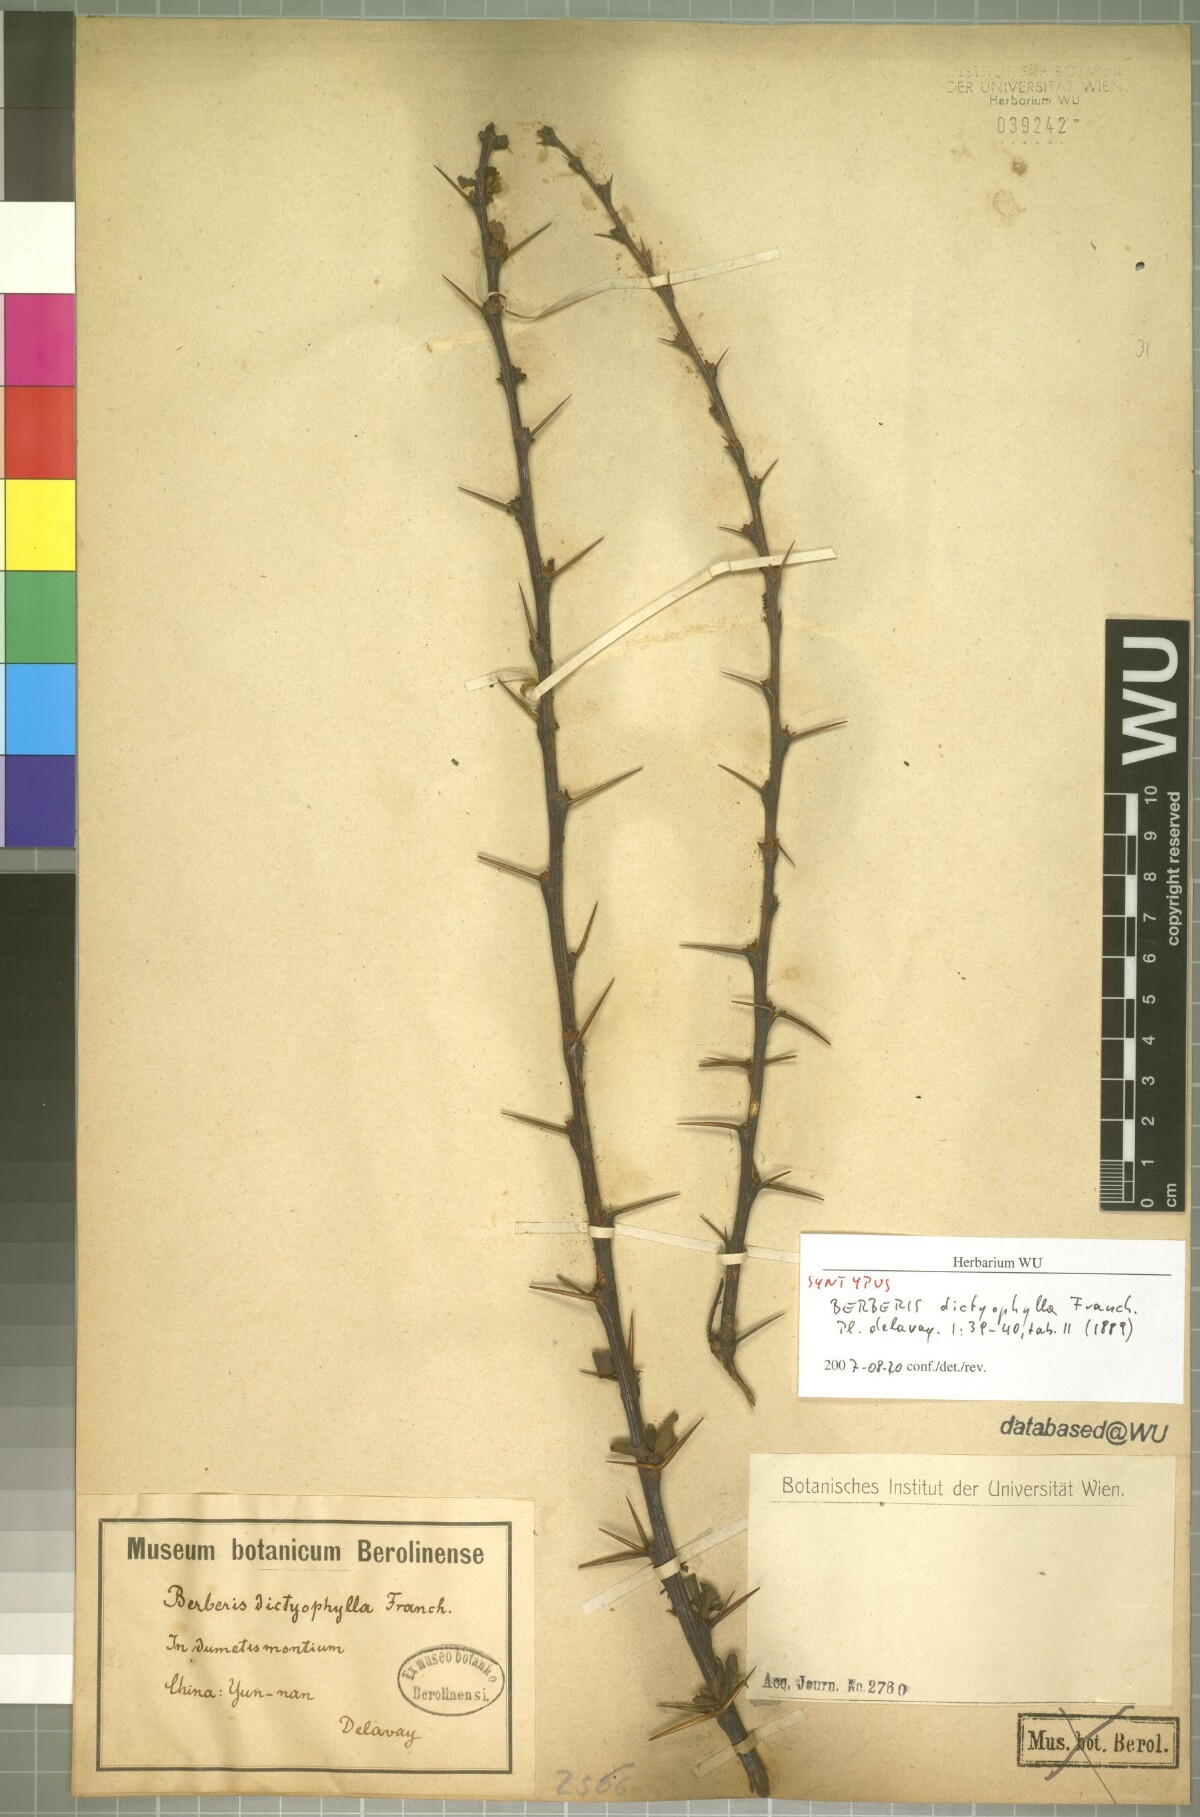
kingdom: Plantae
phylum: Tracheophyta
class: Magnoliopsida
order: Ranunculales
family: Berberidaceae
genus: Berberis
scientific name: Berberis dictyophylla
